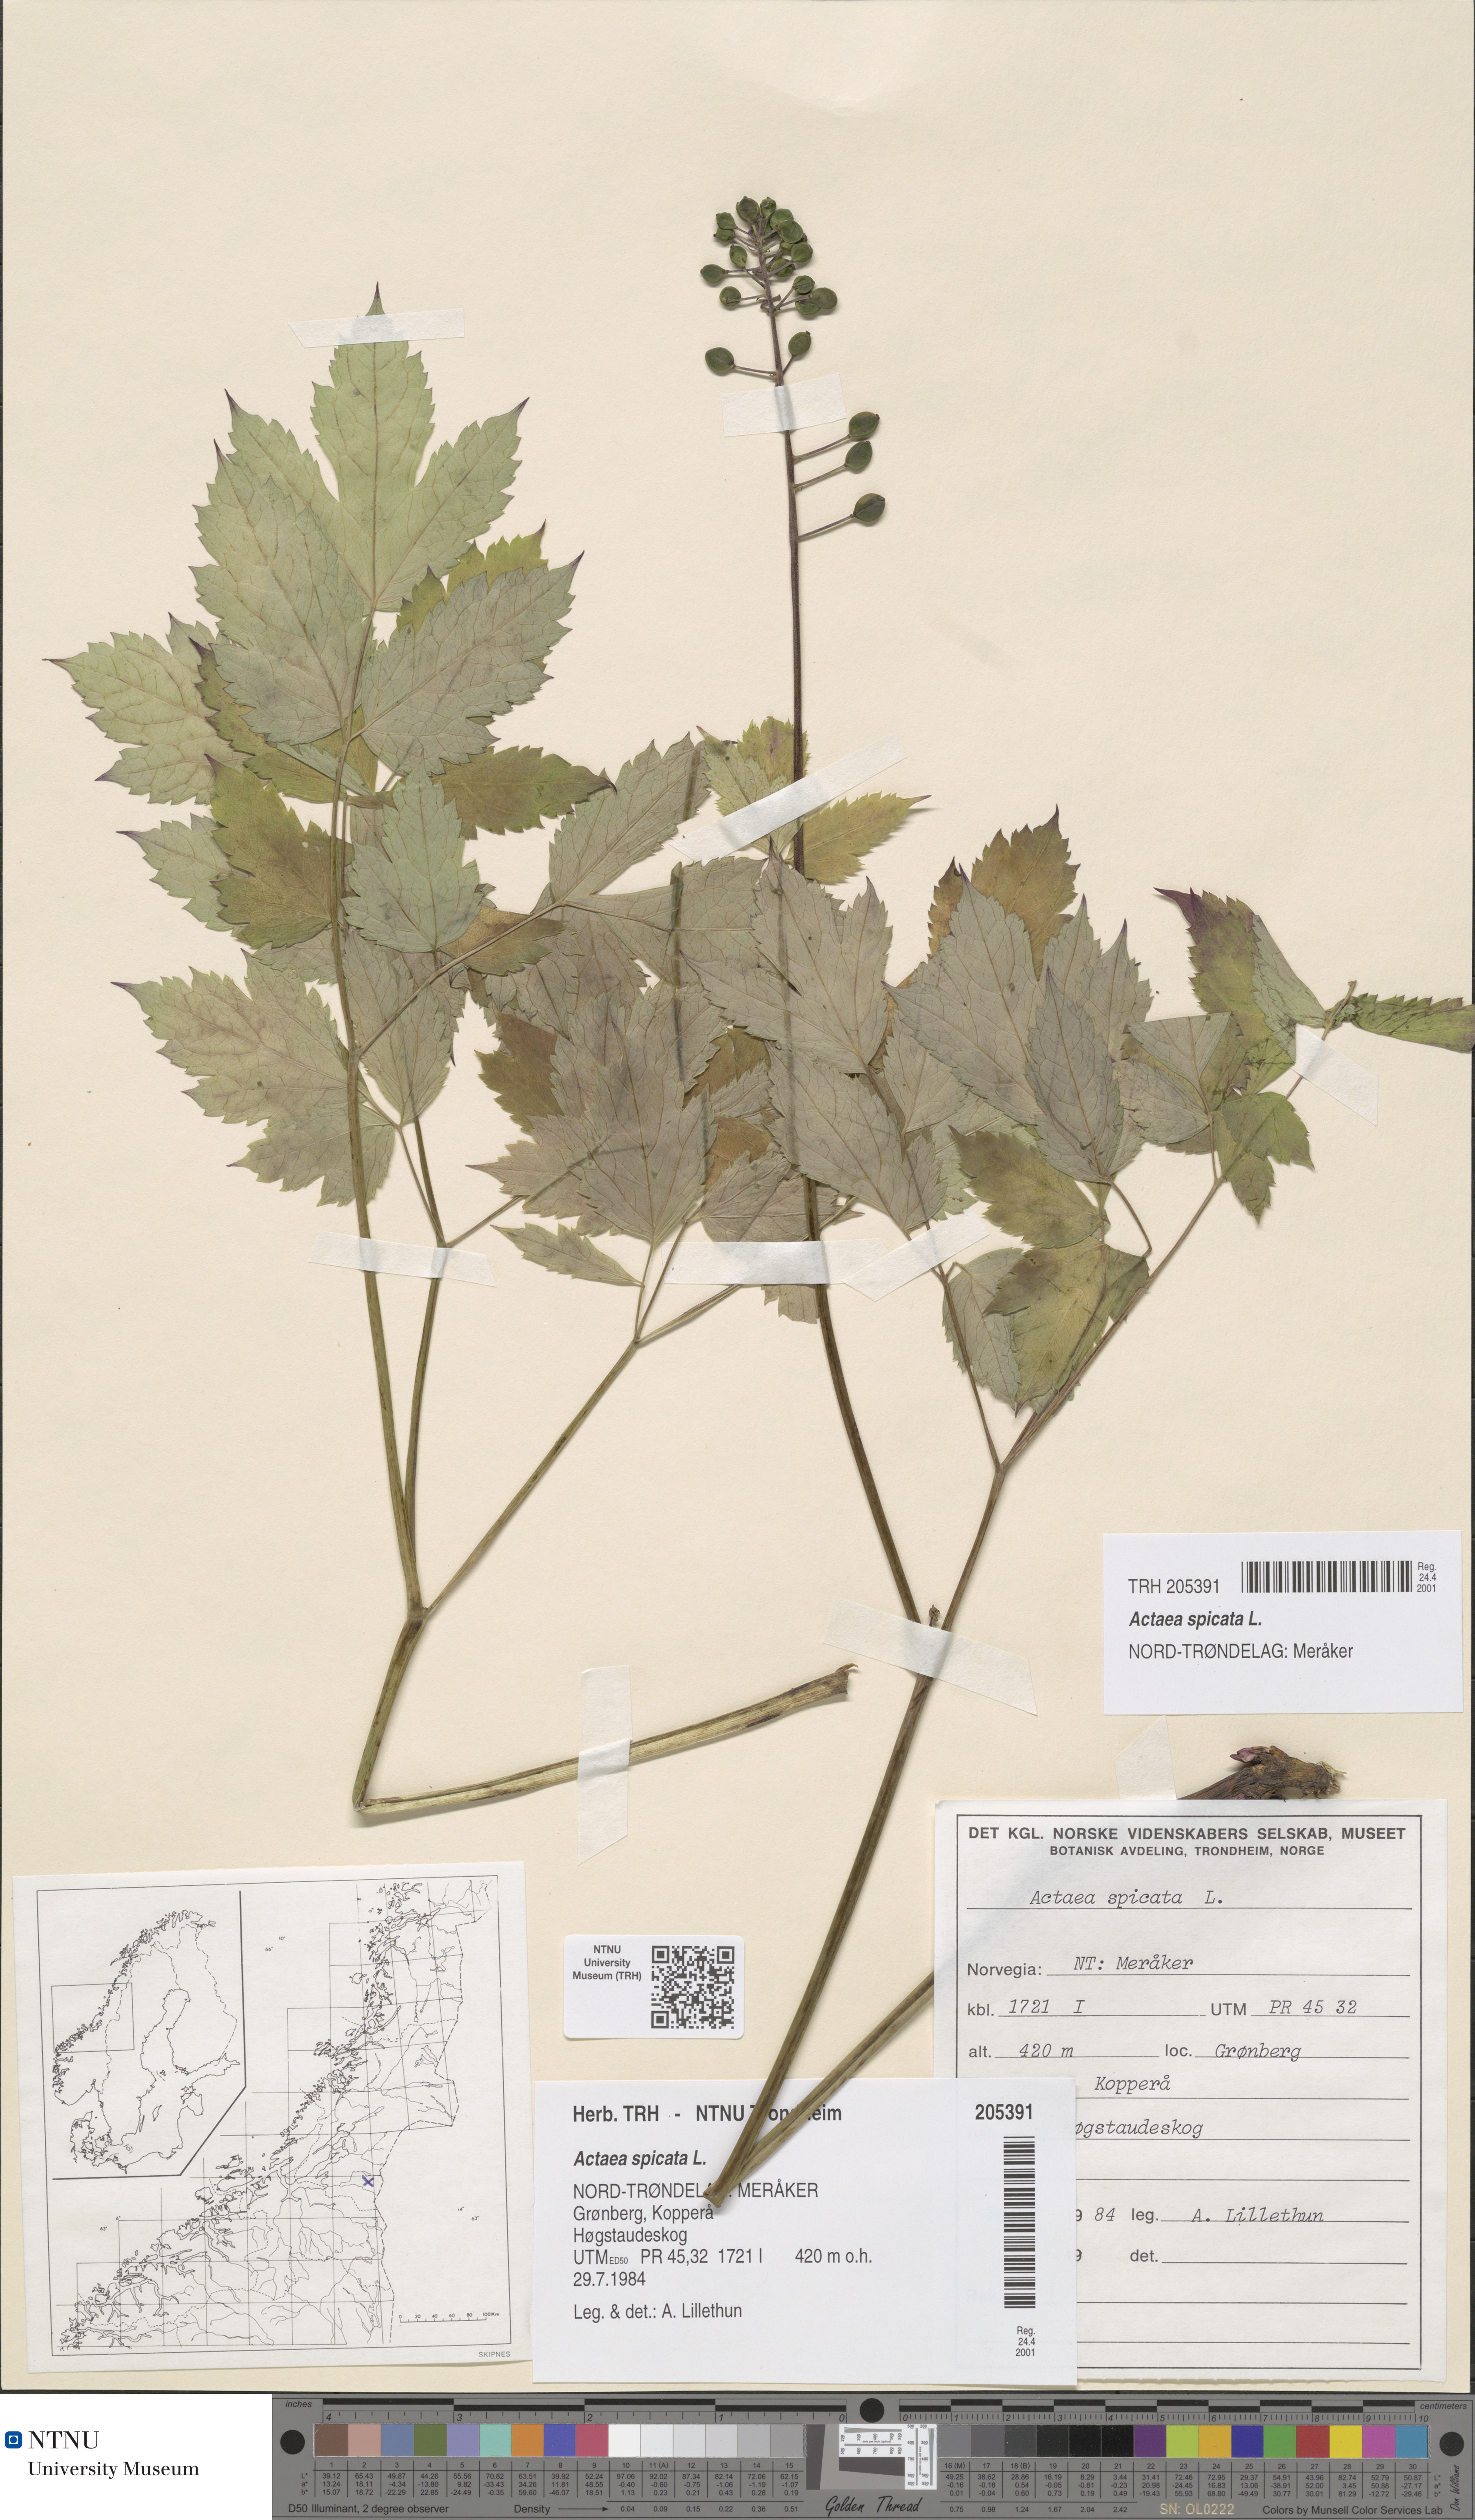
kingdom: Plantae
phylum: Tracheophyta
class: Magnoliopsida
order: Ranunculales
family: Ranunculaceae
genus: Actaea
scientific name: Actaea spicata
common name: Baneberry
